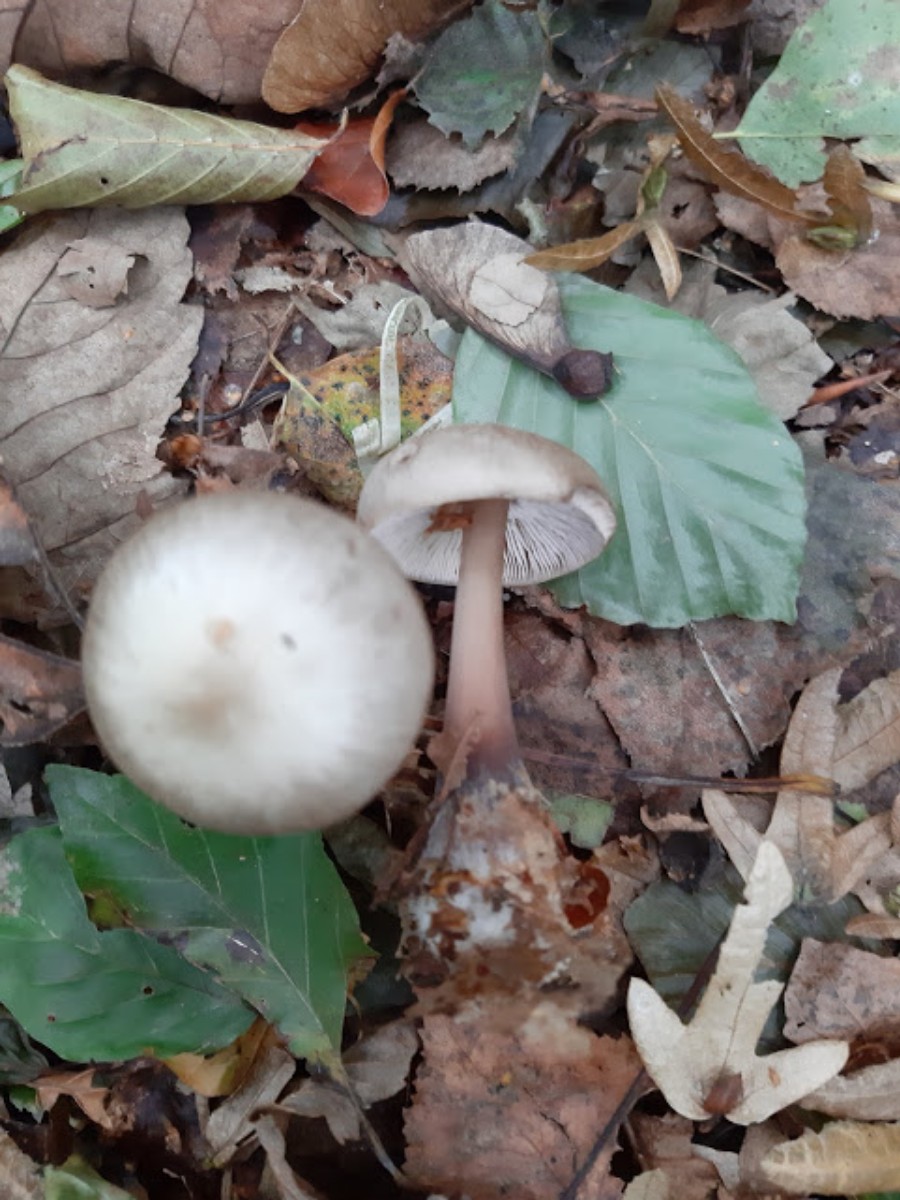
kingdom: Fungi
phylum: Basidiomycota
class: Agaricomycetes
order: Agaricales
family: Omphalotaceae
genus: Rhodocollybia
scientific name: Rhodocollybia asema
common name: horngrå fladhat
